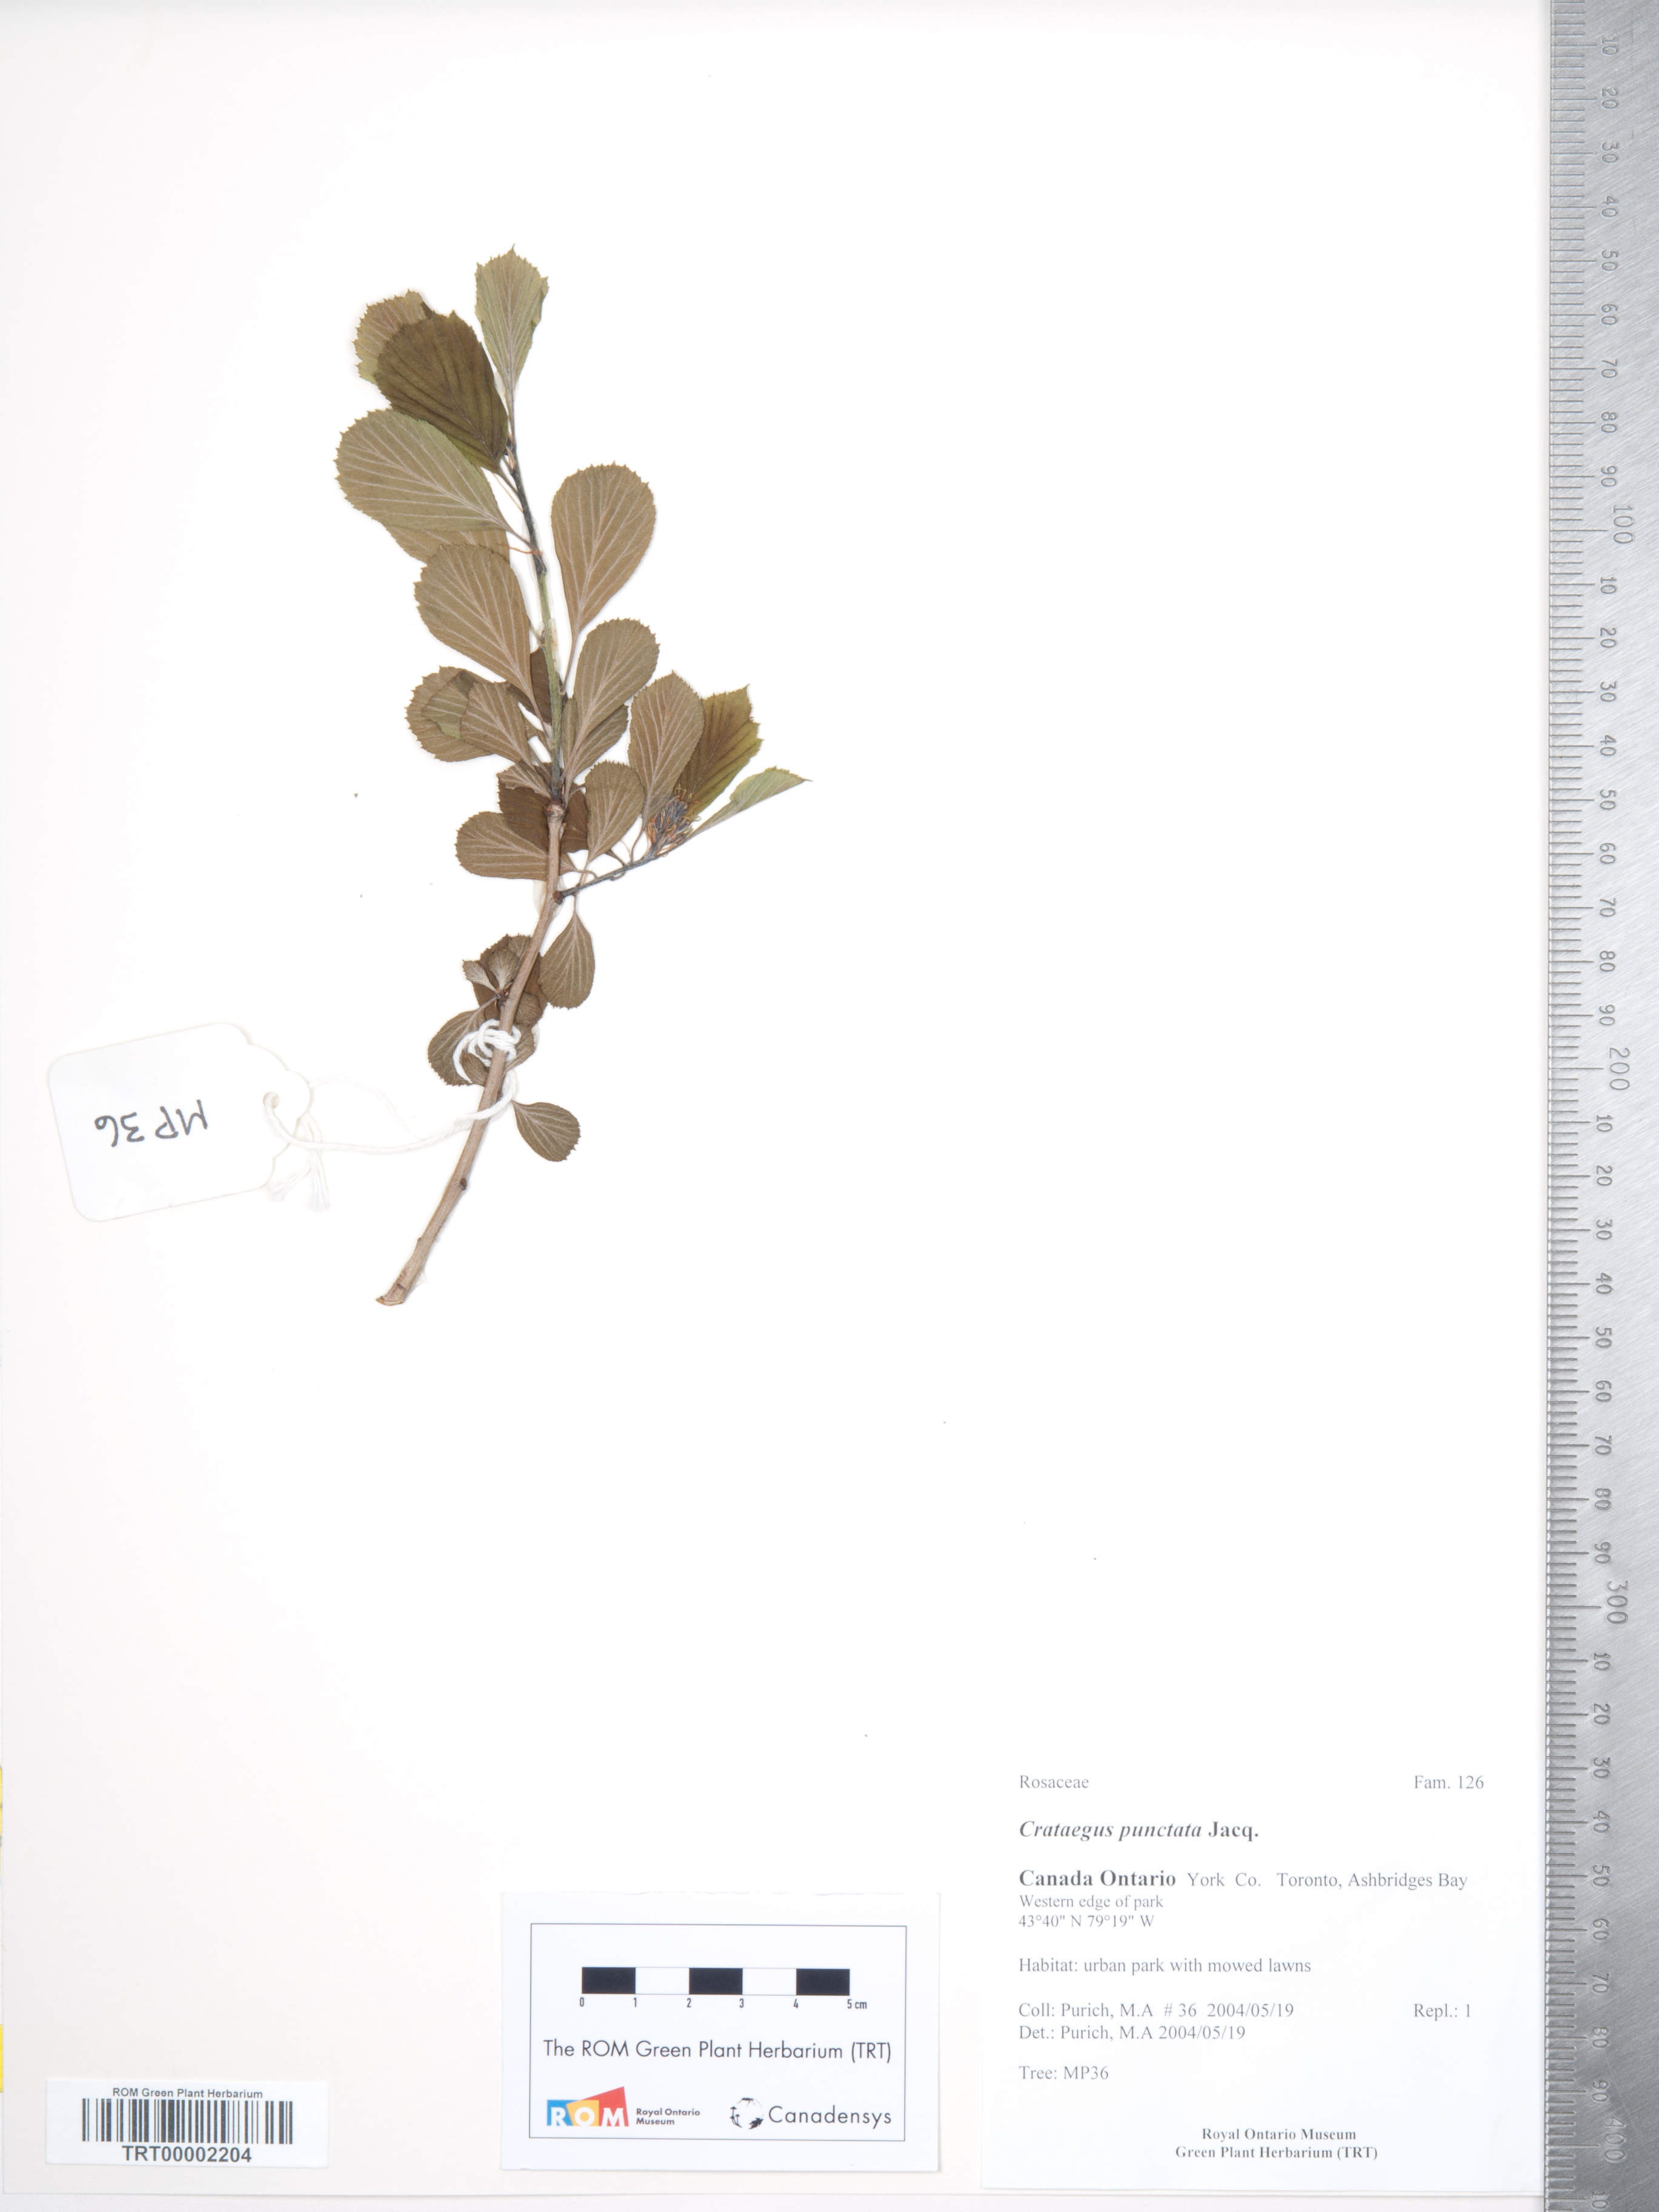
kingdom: Plantae
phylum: Tracheophyta
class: Magnoliopsida
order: Rosales
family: Rosaceae
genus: Crataegus
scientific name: Crataegus punctata
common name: Dotted hawthorn
